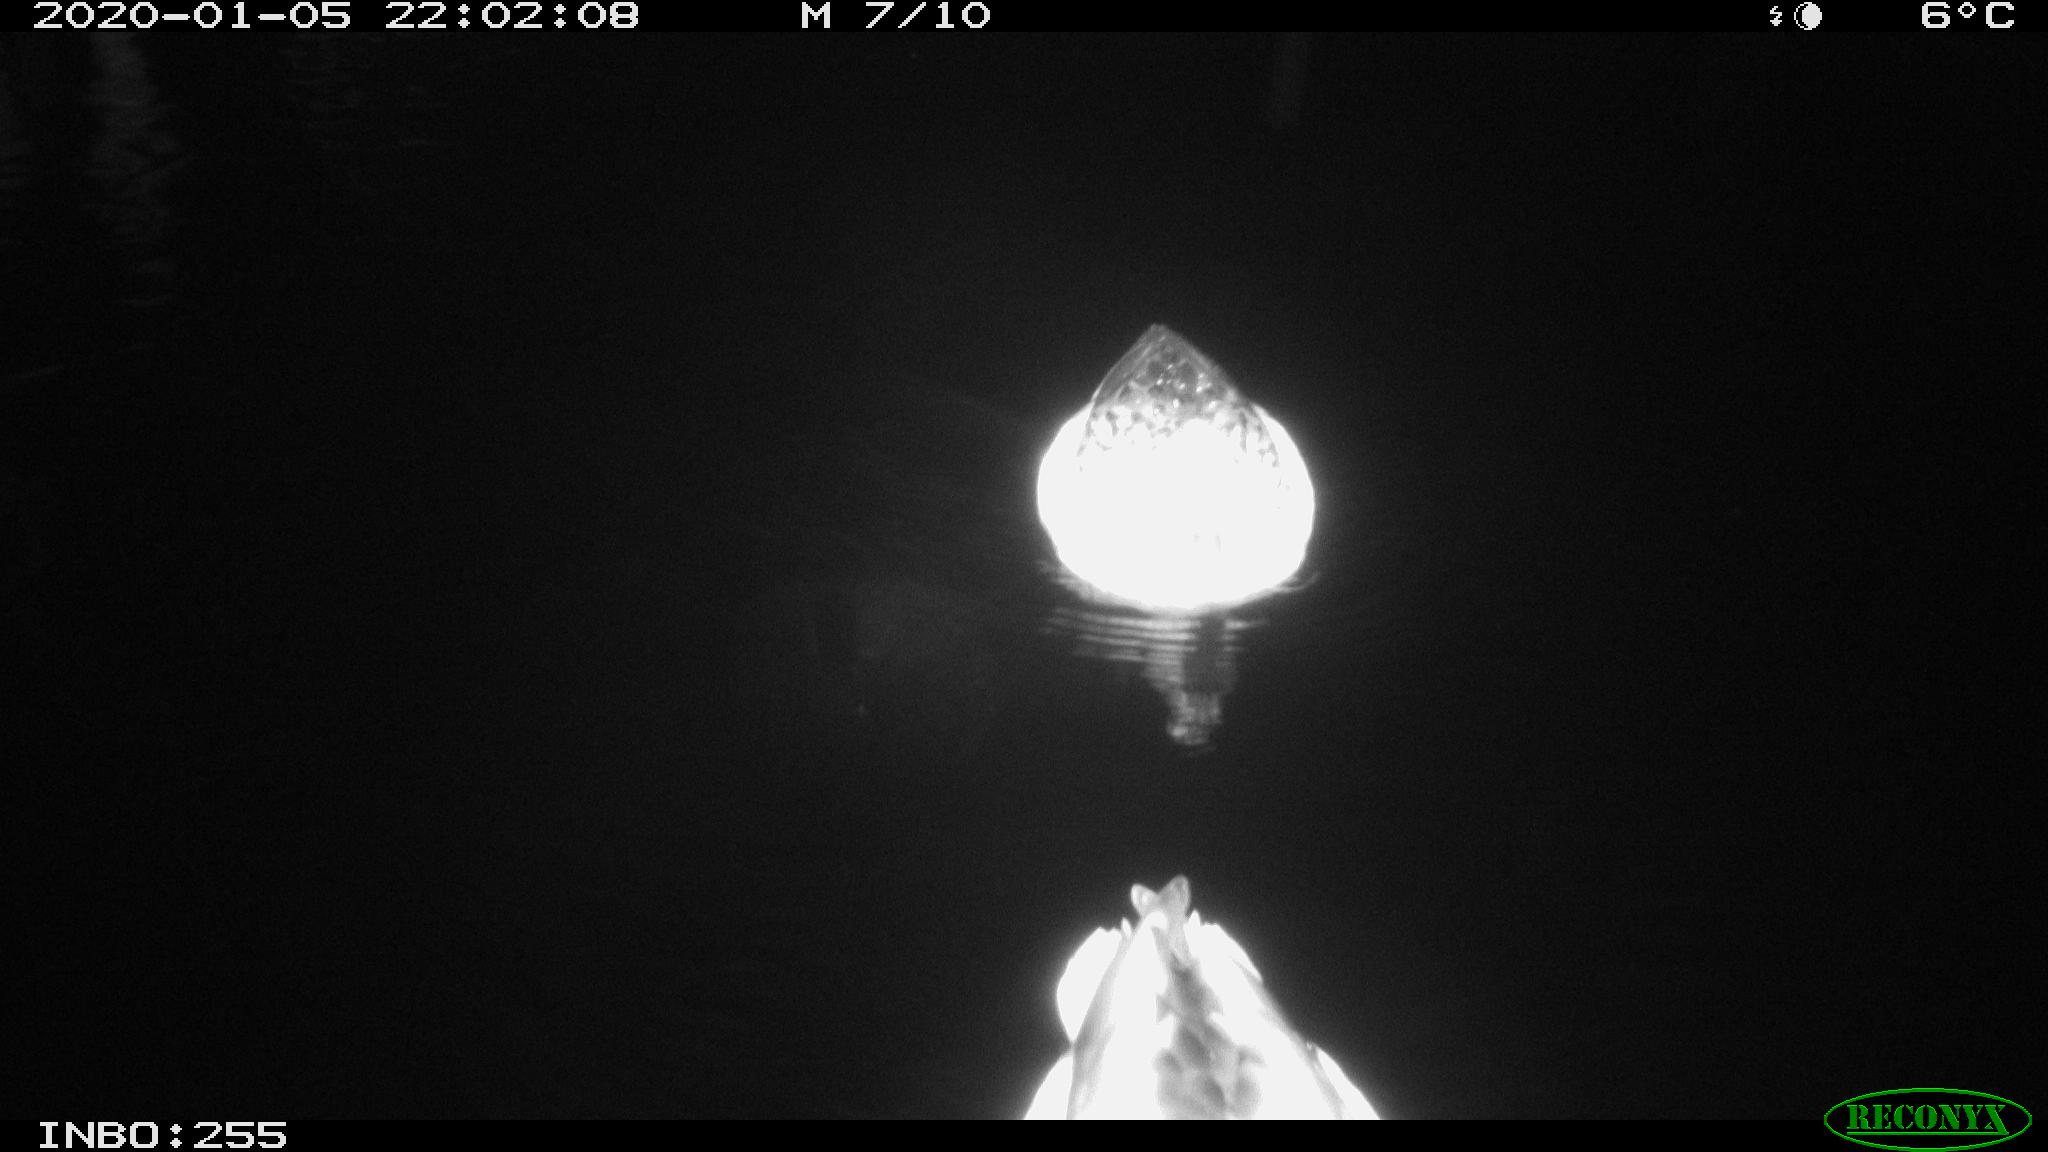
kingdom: Animalia
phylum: Chordata
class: Aves
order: Anseriformes
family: Anatidae
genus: Anas
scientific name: Anas platyrhynchos
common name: Mallard
